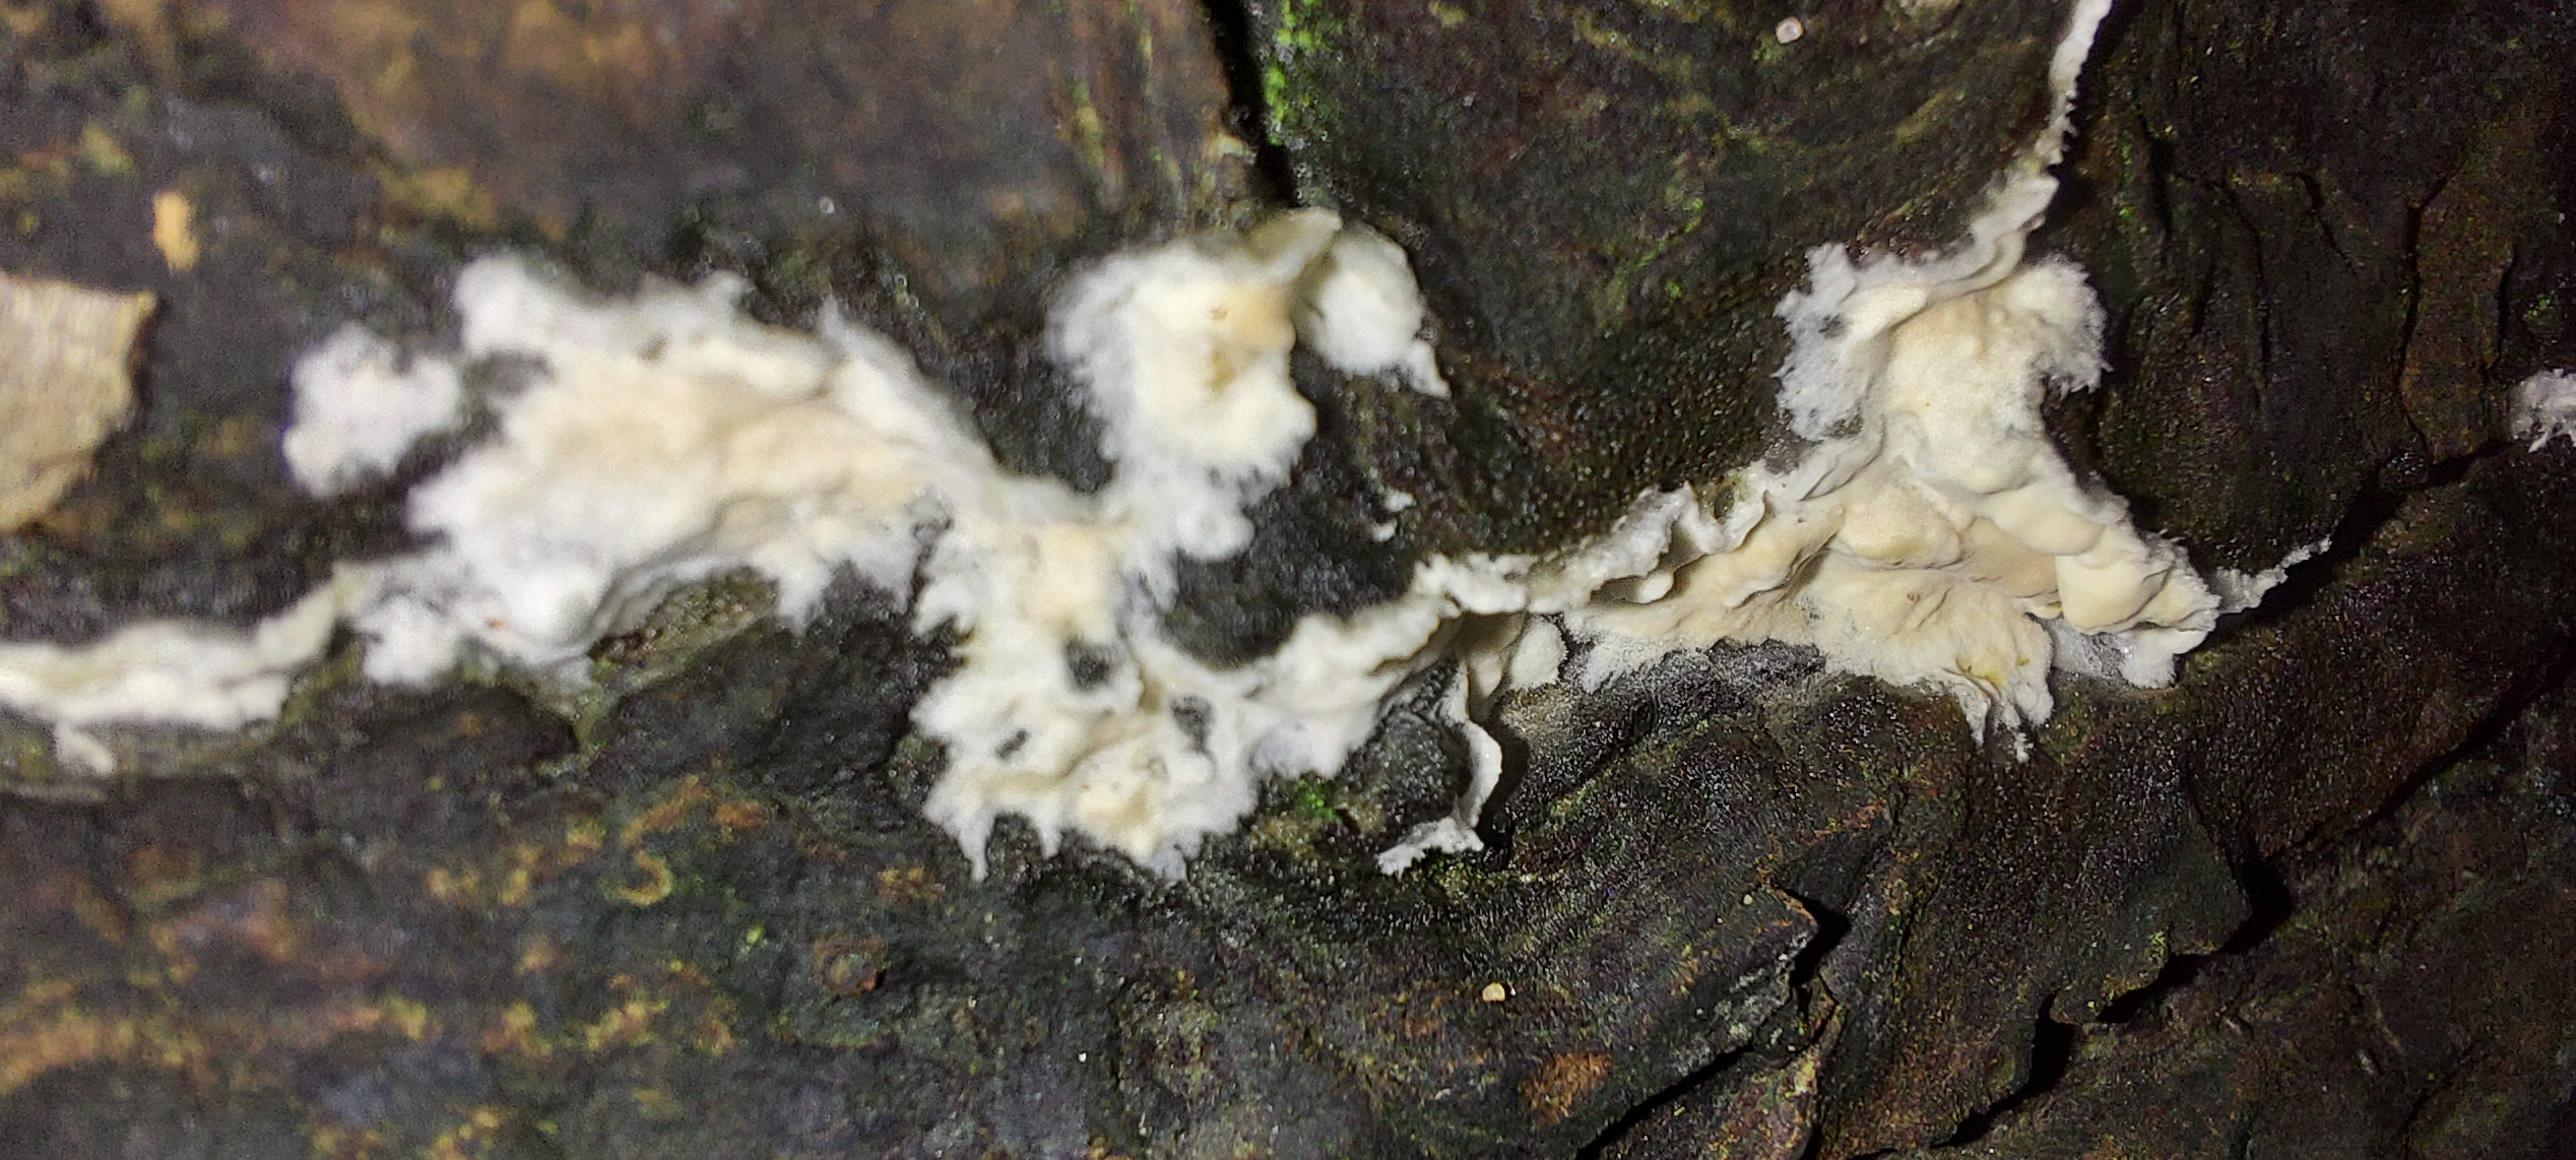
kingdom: Fungi
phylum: Basidiomycota
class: Agaricomycetes
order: Corticiales
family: Corticiaceae
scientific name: Corticiaceae
